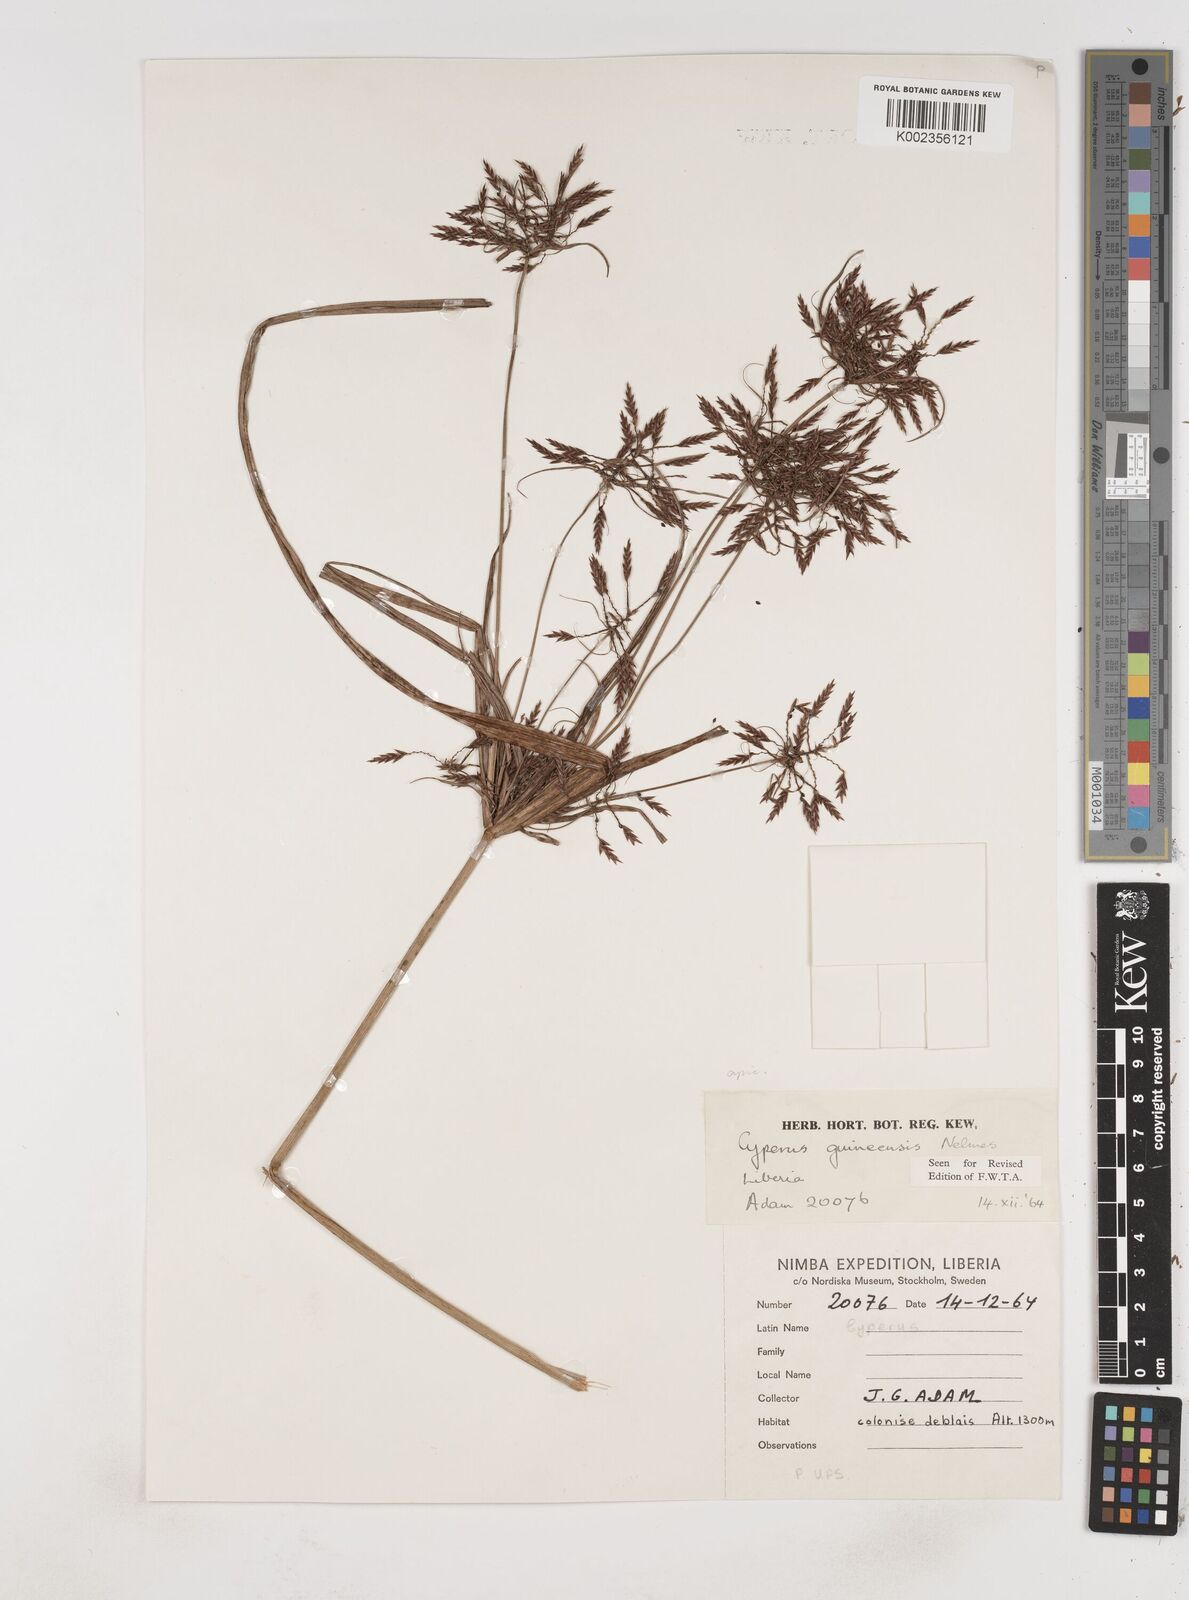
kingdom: Plantae
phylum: Tracheophyta
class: Liliopsida
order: Poales
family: Cyperaceae
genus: Cyperus
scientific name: Cyperus tenuiculmis
